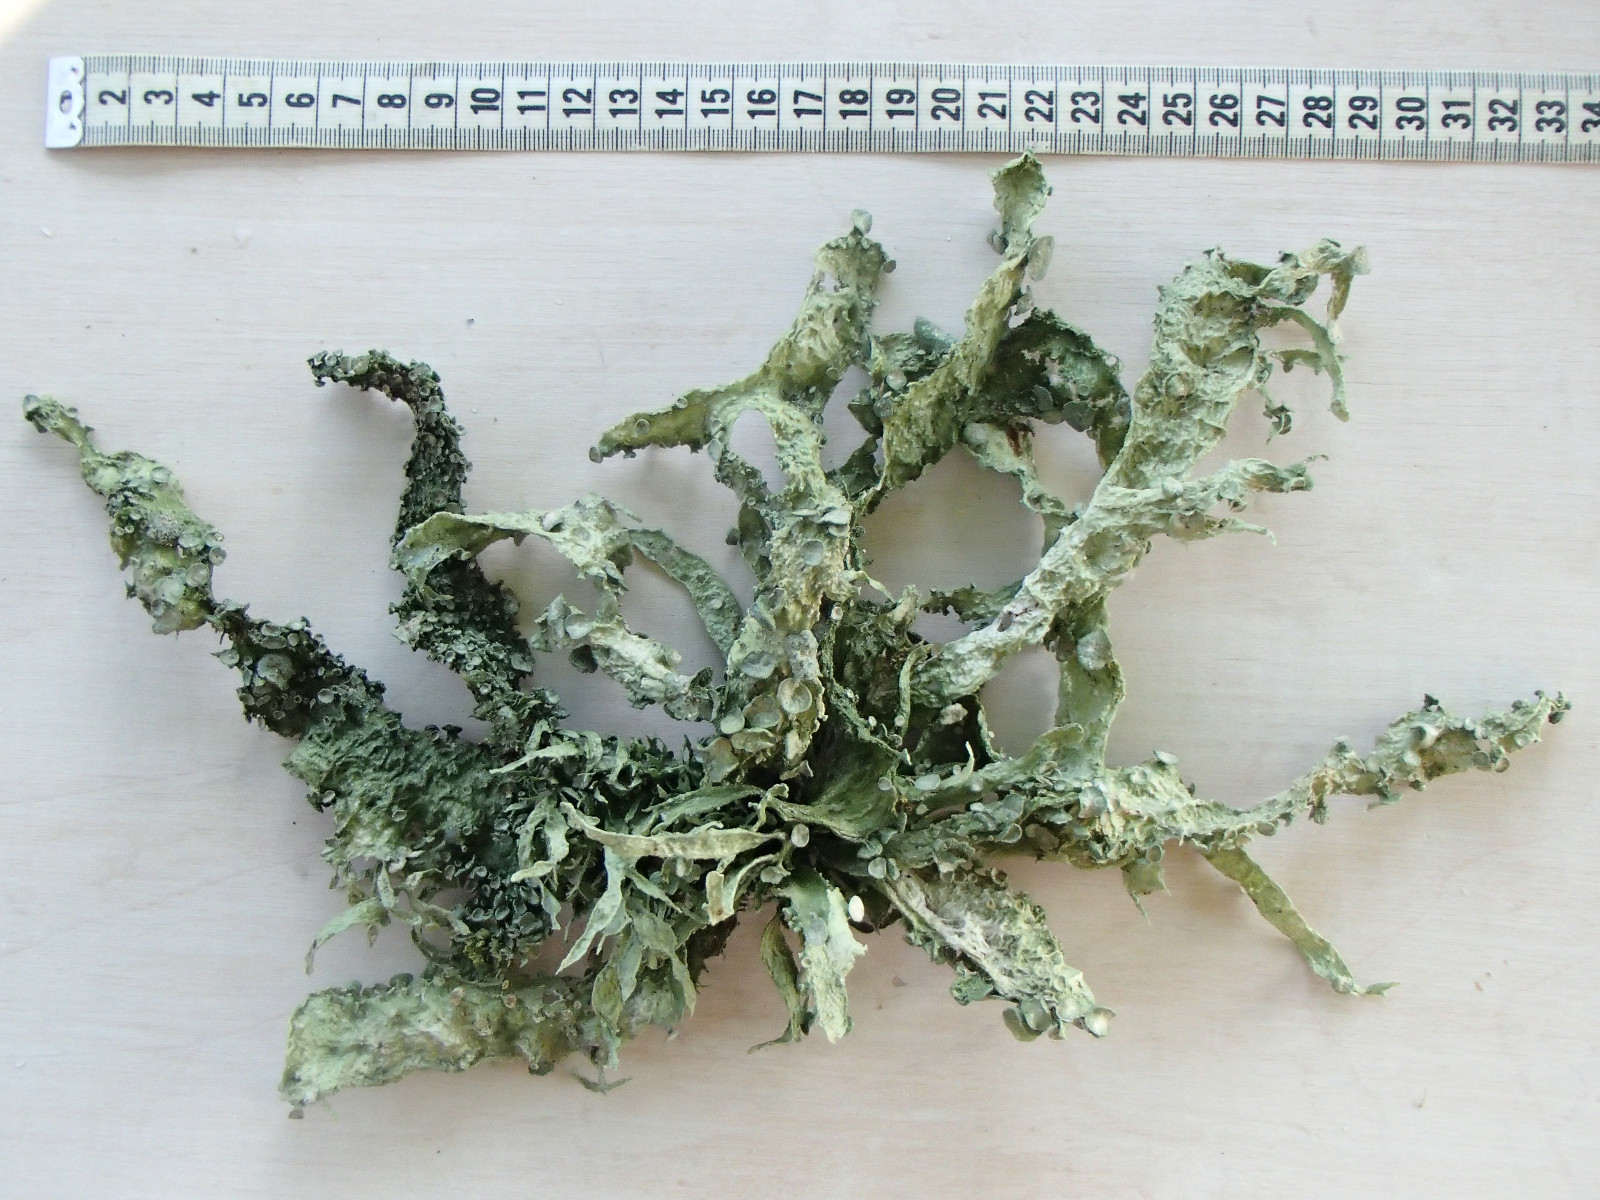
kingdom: Fungi
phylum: Ascomycota
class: Lecanoromycetes
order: Lecanorales
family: Ramalinaceae
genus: Ramalina
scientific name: Ramalina fraxinea
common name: stor grenlav
